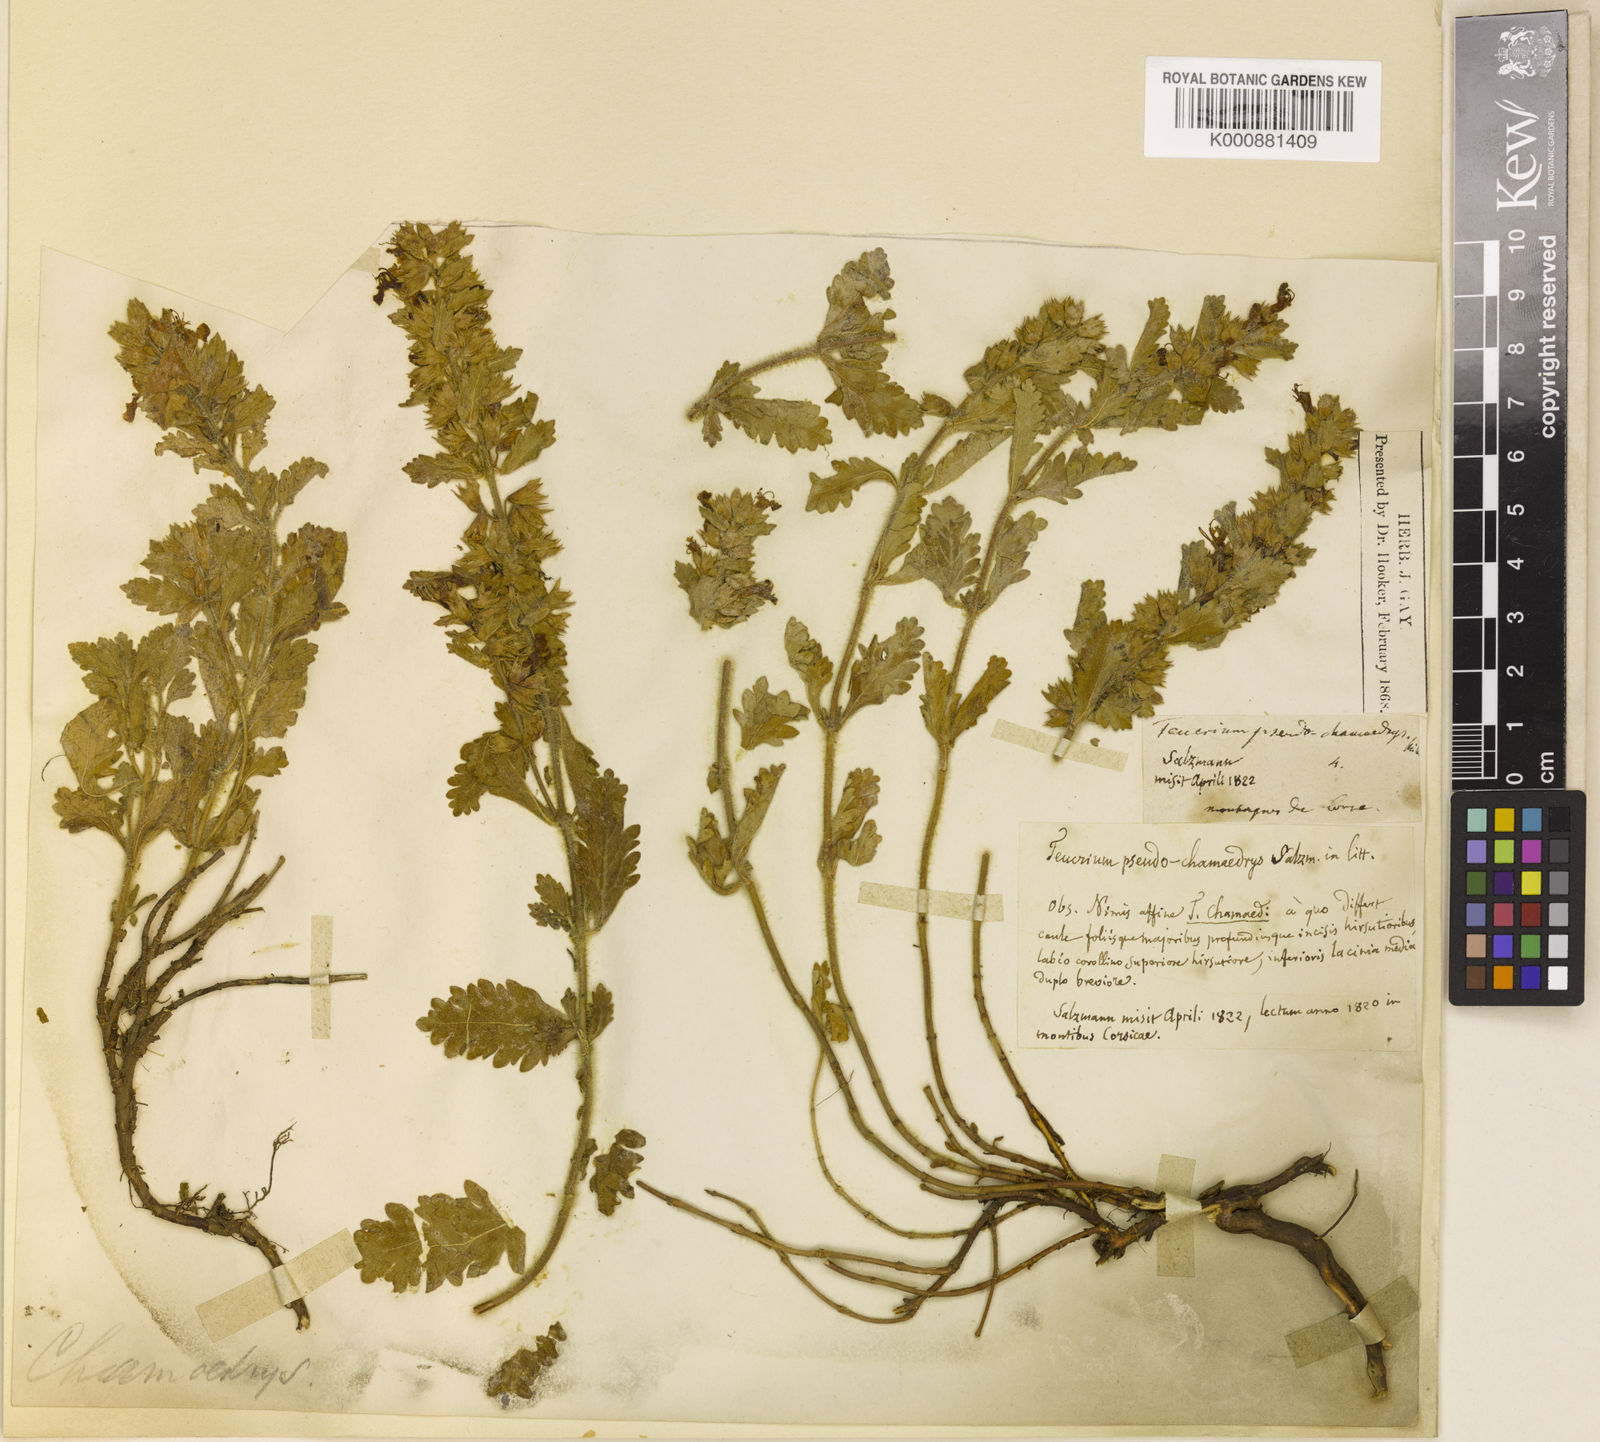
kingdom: Plantae
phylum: Tracheophyta
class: Magnoliopsida
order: Lamiales
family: Lamiaceae
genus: Teucrium
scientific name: Teucrium chamaedrys
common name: Wall germander
